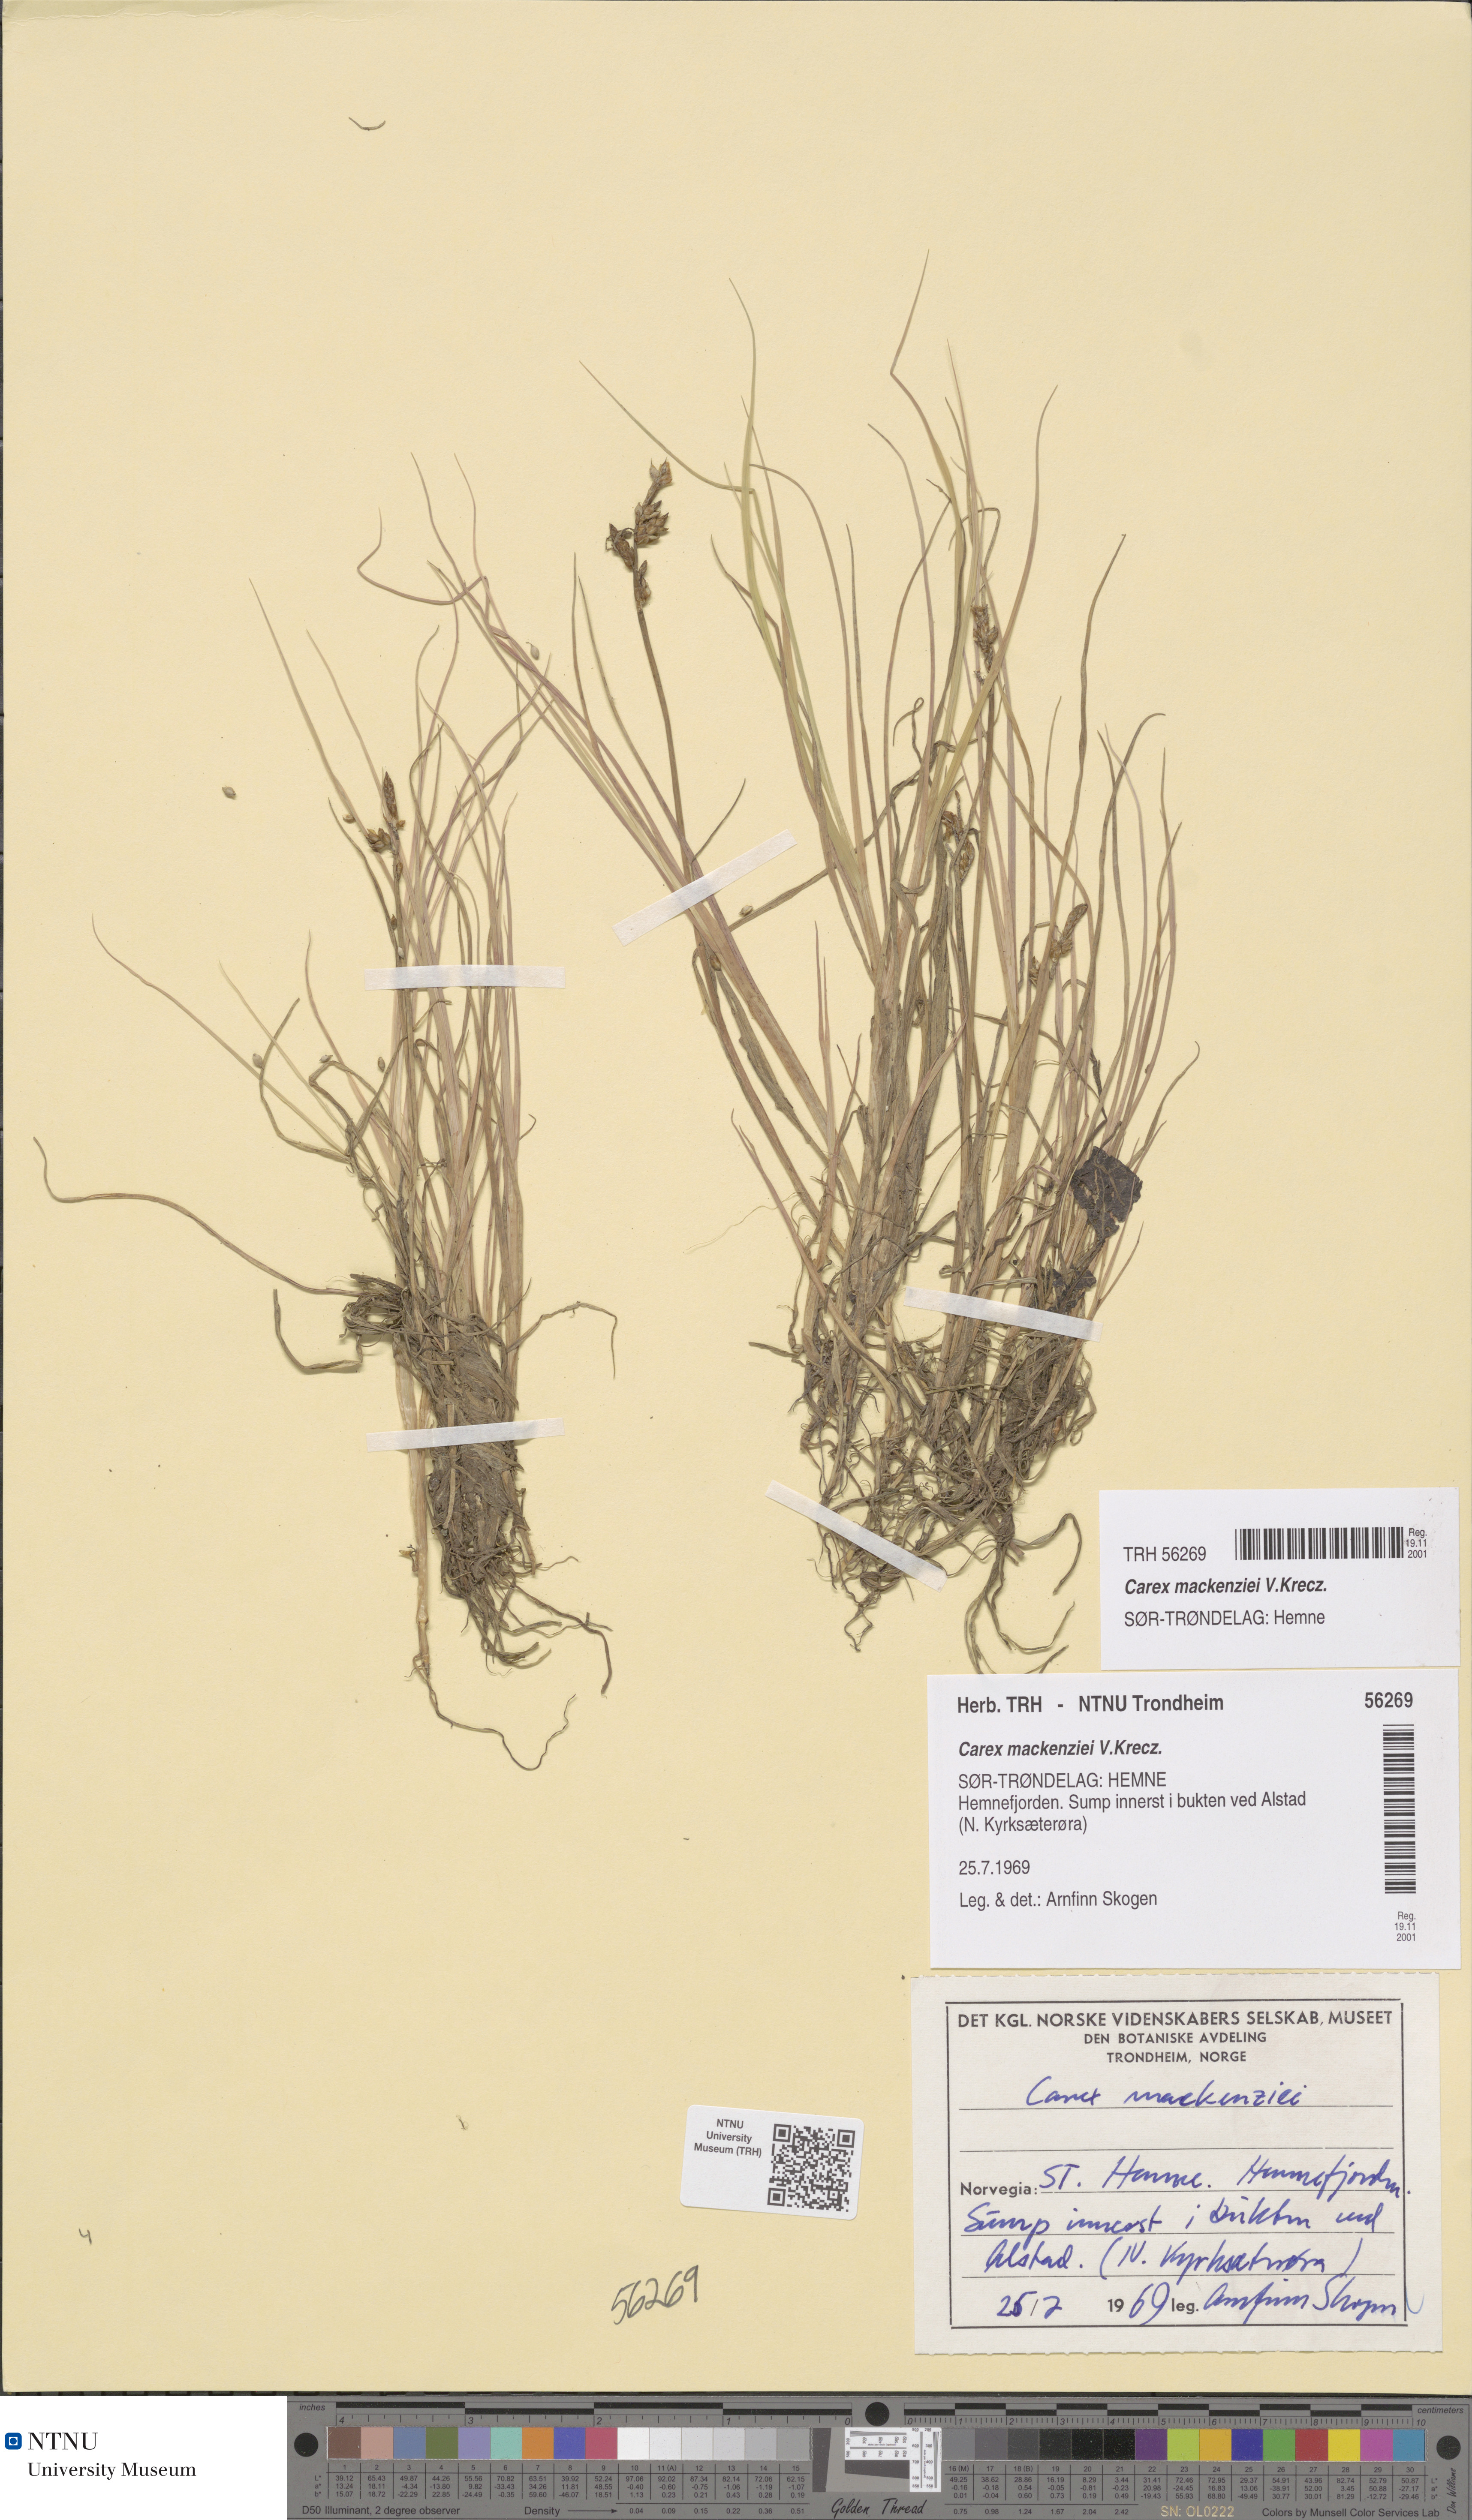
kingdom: Plantae
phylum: Tracheophyta
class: Liliopsida
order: Poales
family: Cyperaceae
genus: Carex
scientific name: Carex mackenziei
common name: Mackenzie's sedge
